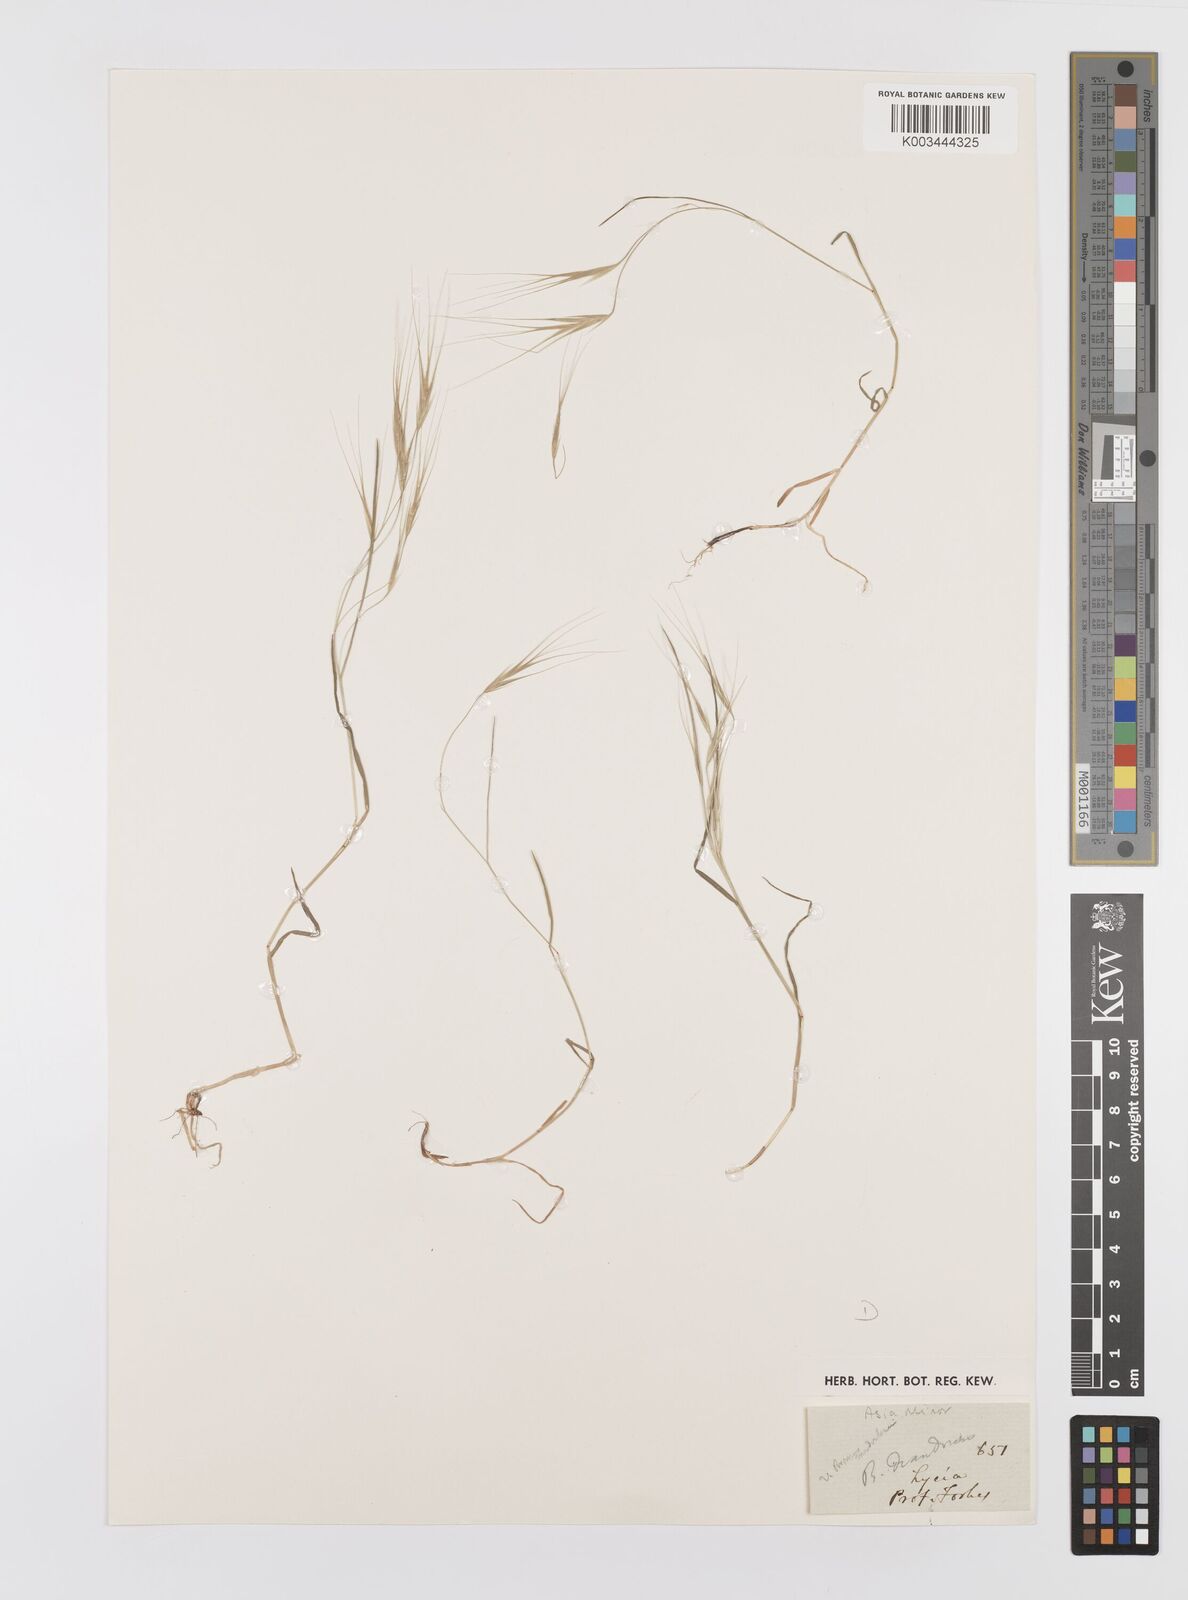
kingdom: Plantae
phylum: Tracheophyta
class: Liliopsida
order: Poales
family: Poaceae
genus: Bromus
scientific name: Bromus diandrus
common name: Ripgut brome
